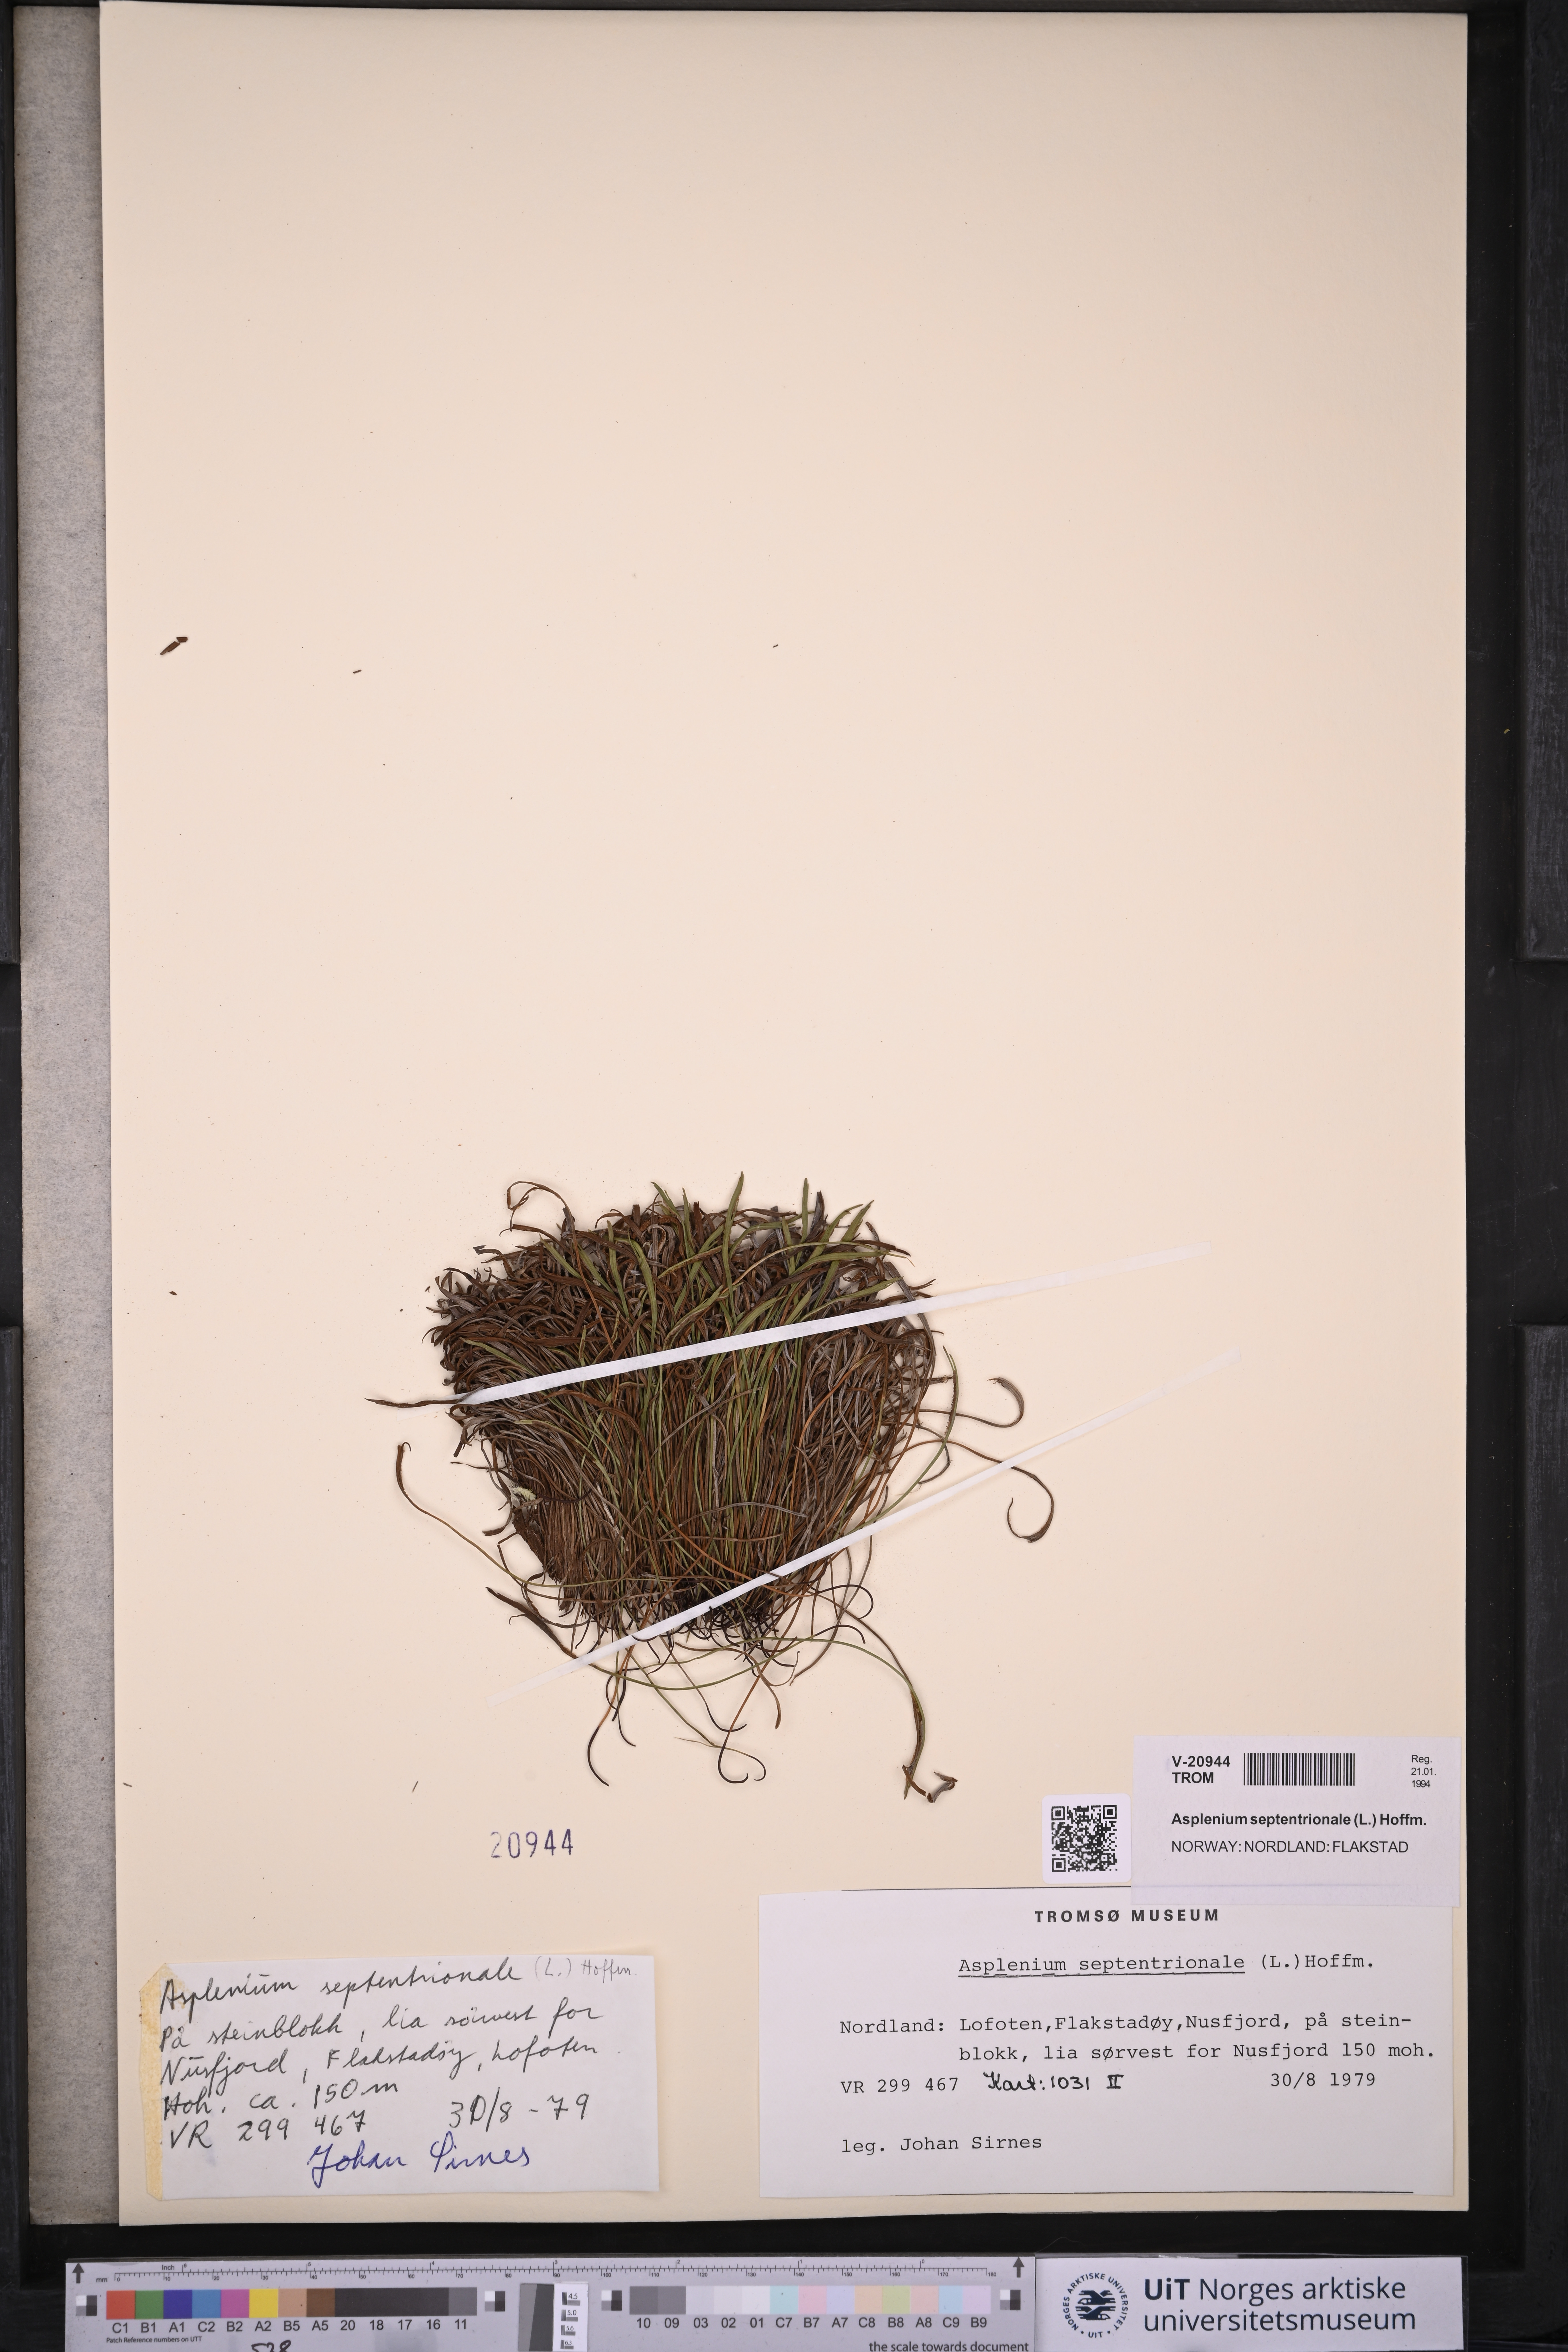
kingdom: Plantae
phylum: Tracheophyta
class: Polypodiopsida
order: Polypodiales
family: Aspleniaceae
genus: Asplenium
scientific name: Asplenium septentrionale
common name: Forked spleenwort
